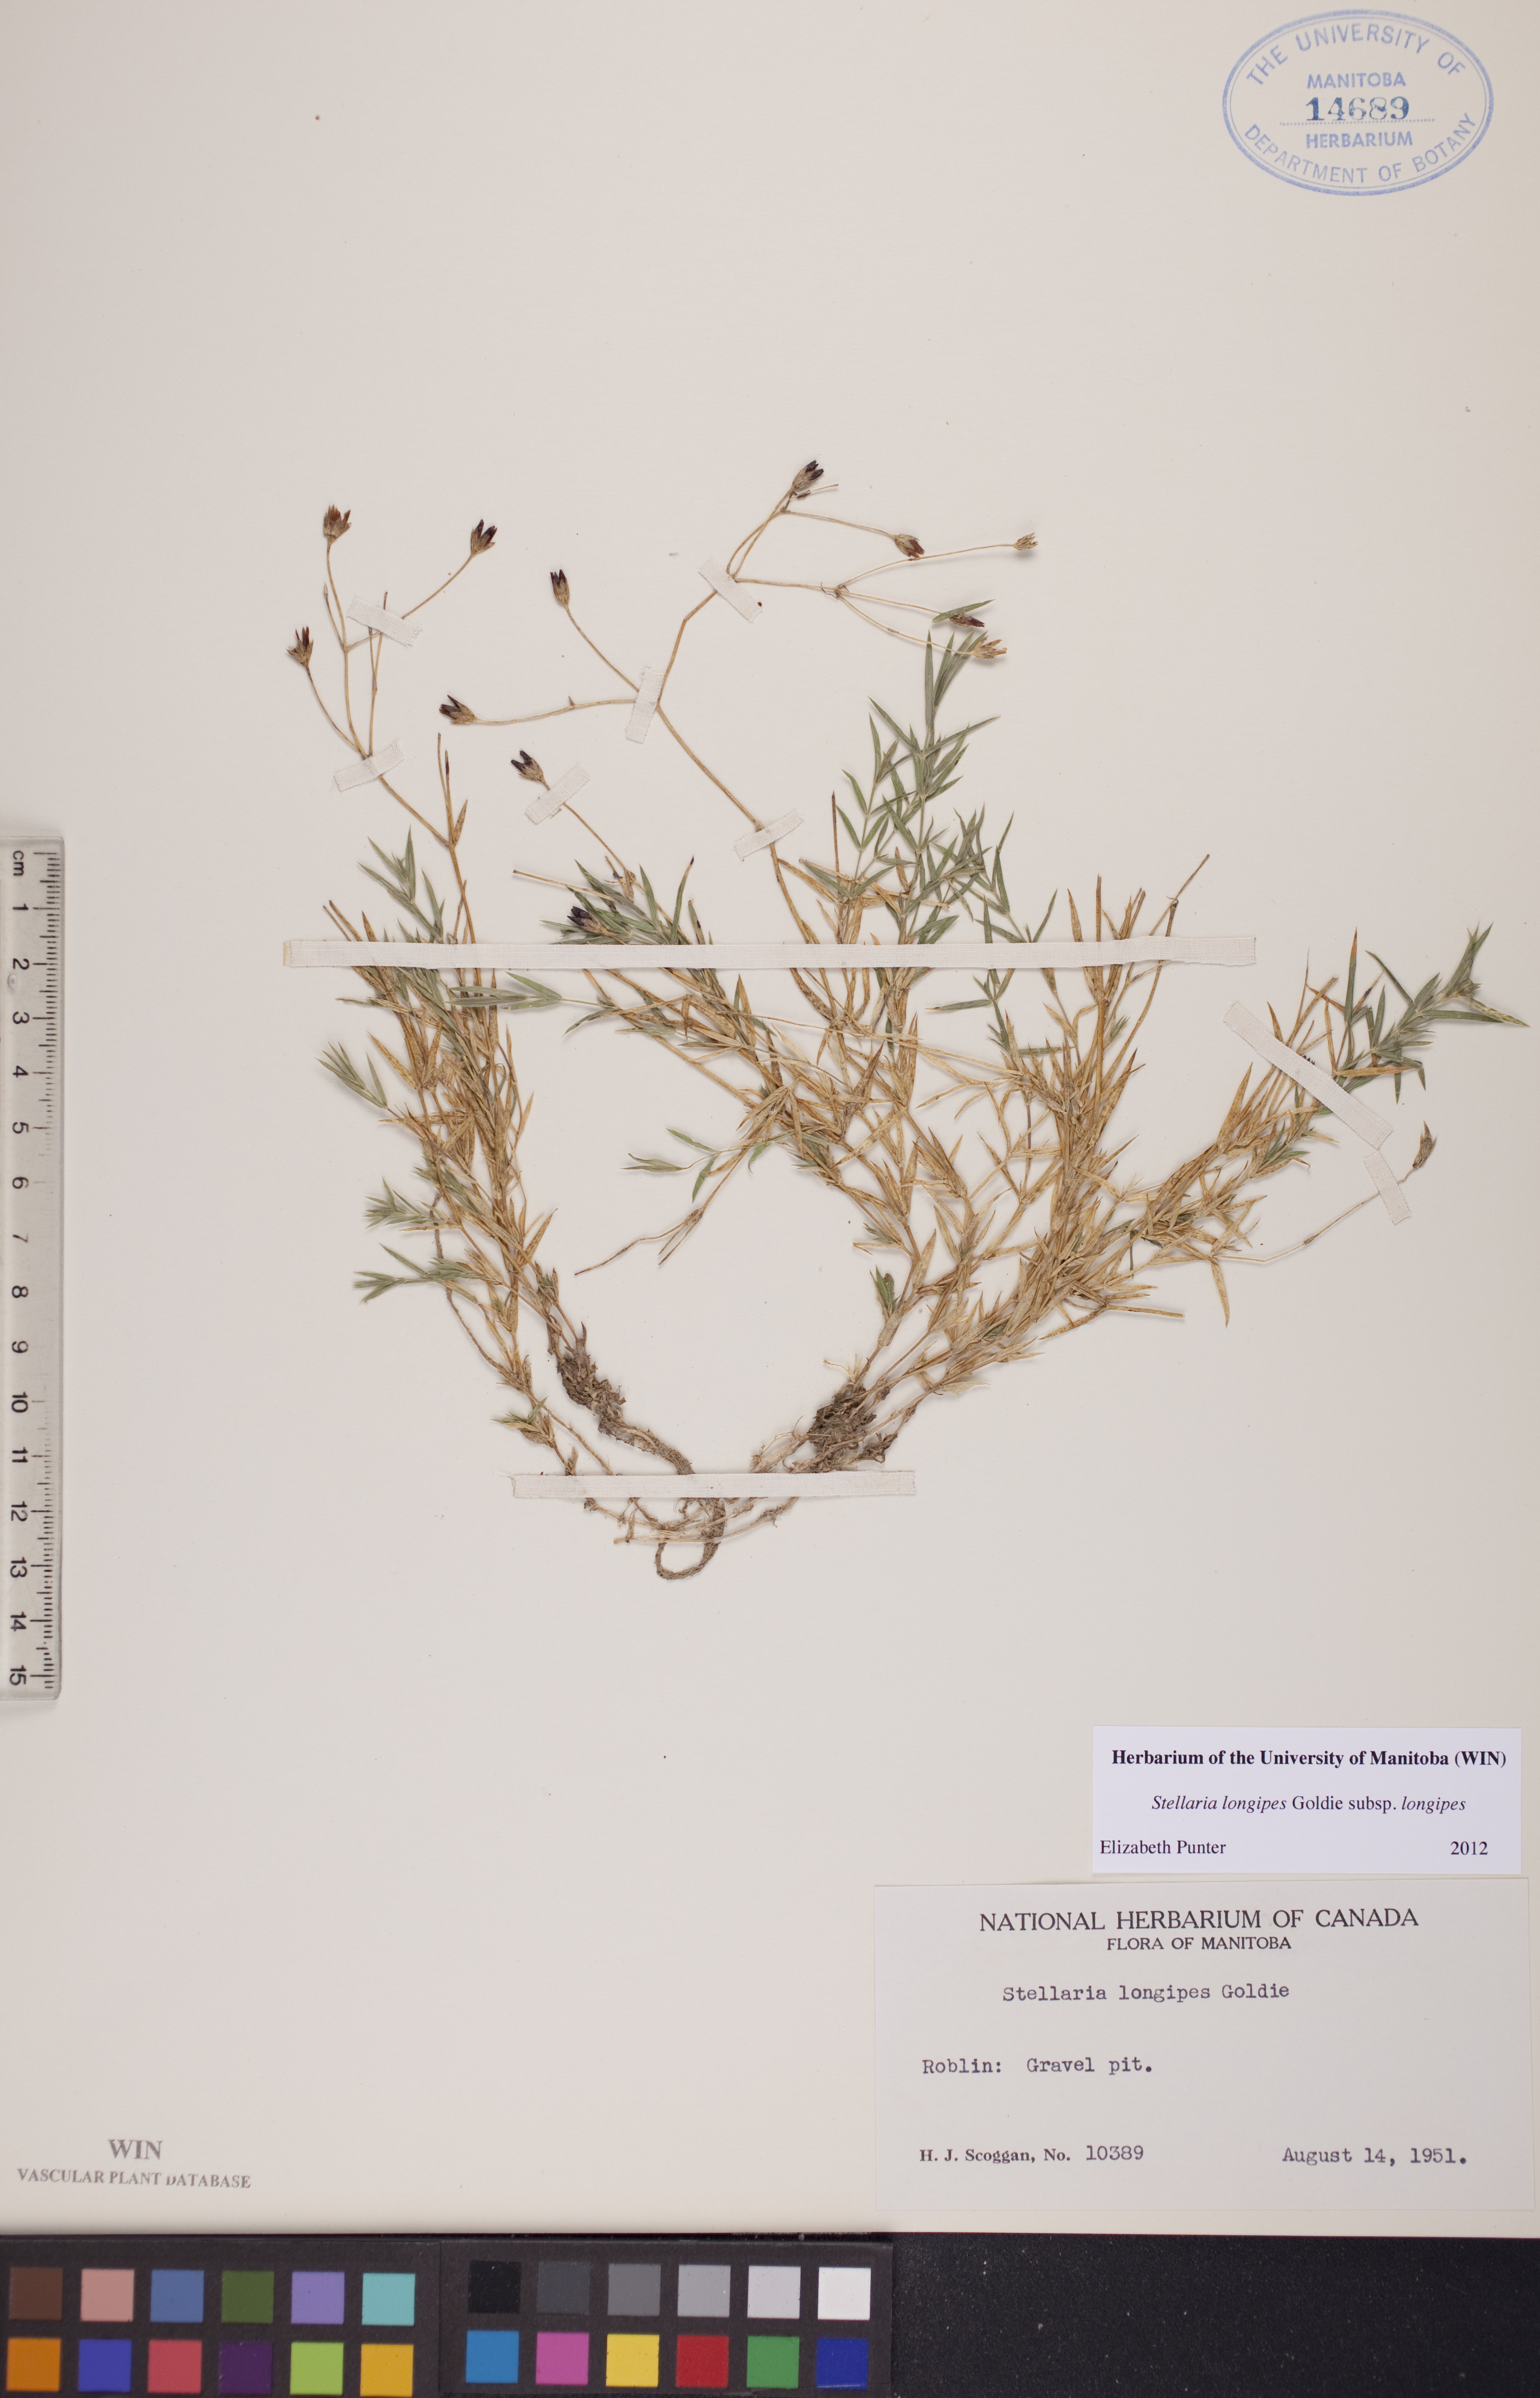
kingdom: Plantae
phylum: Tracheophyta
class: Magnoliopsida
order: Caryophyllales
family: Caryophyllaceae
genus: Stellaria
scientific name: Stellaria longipes
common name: Goldie's starwort
